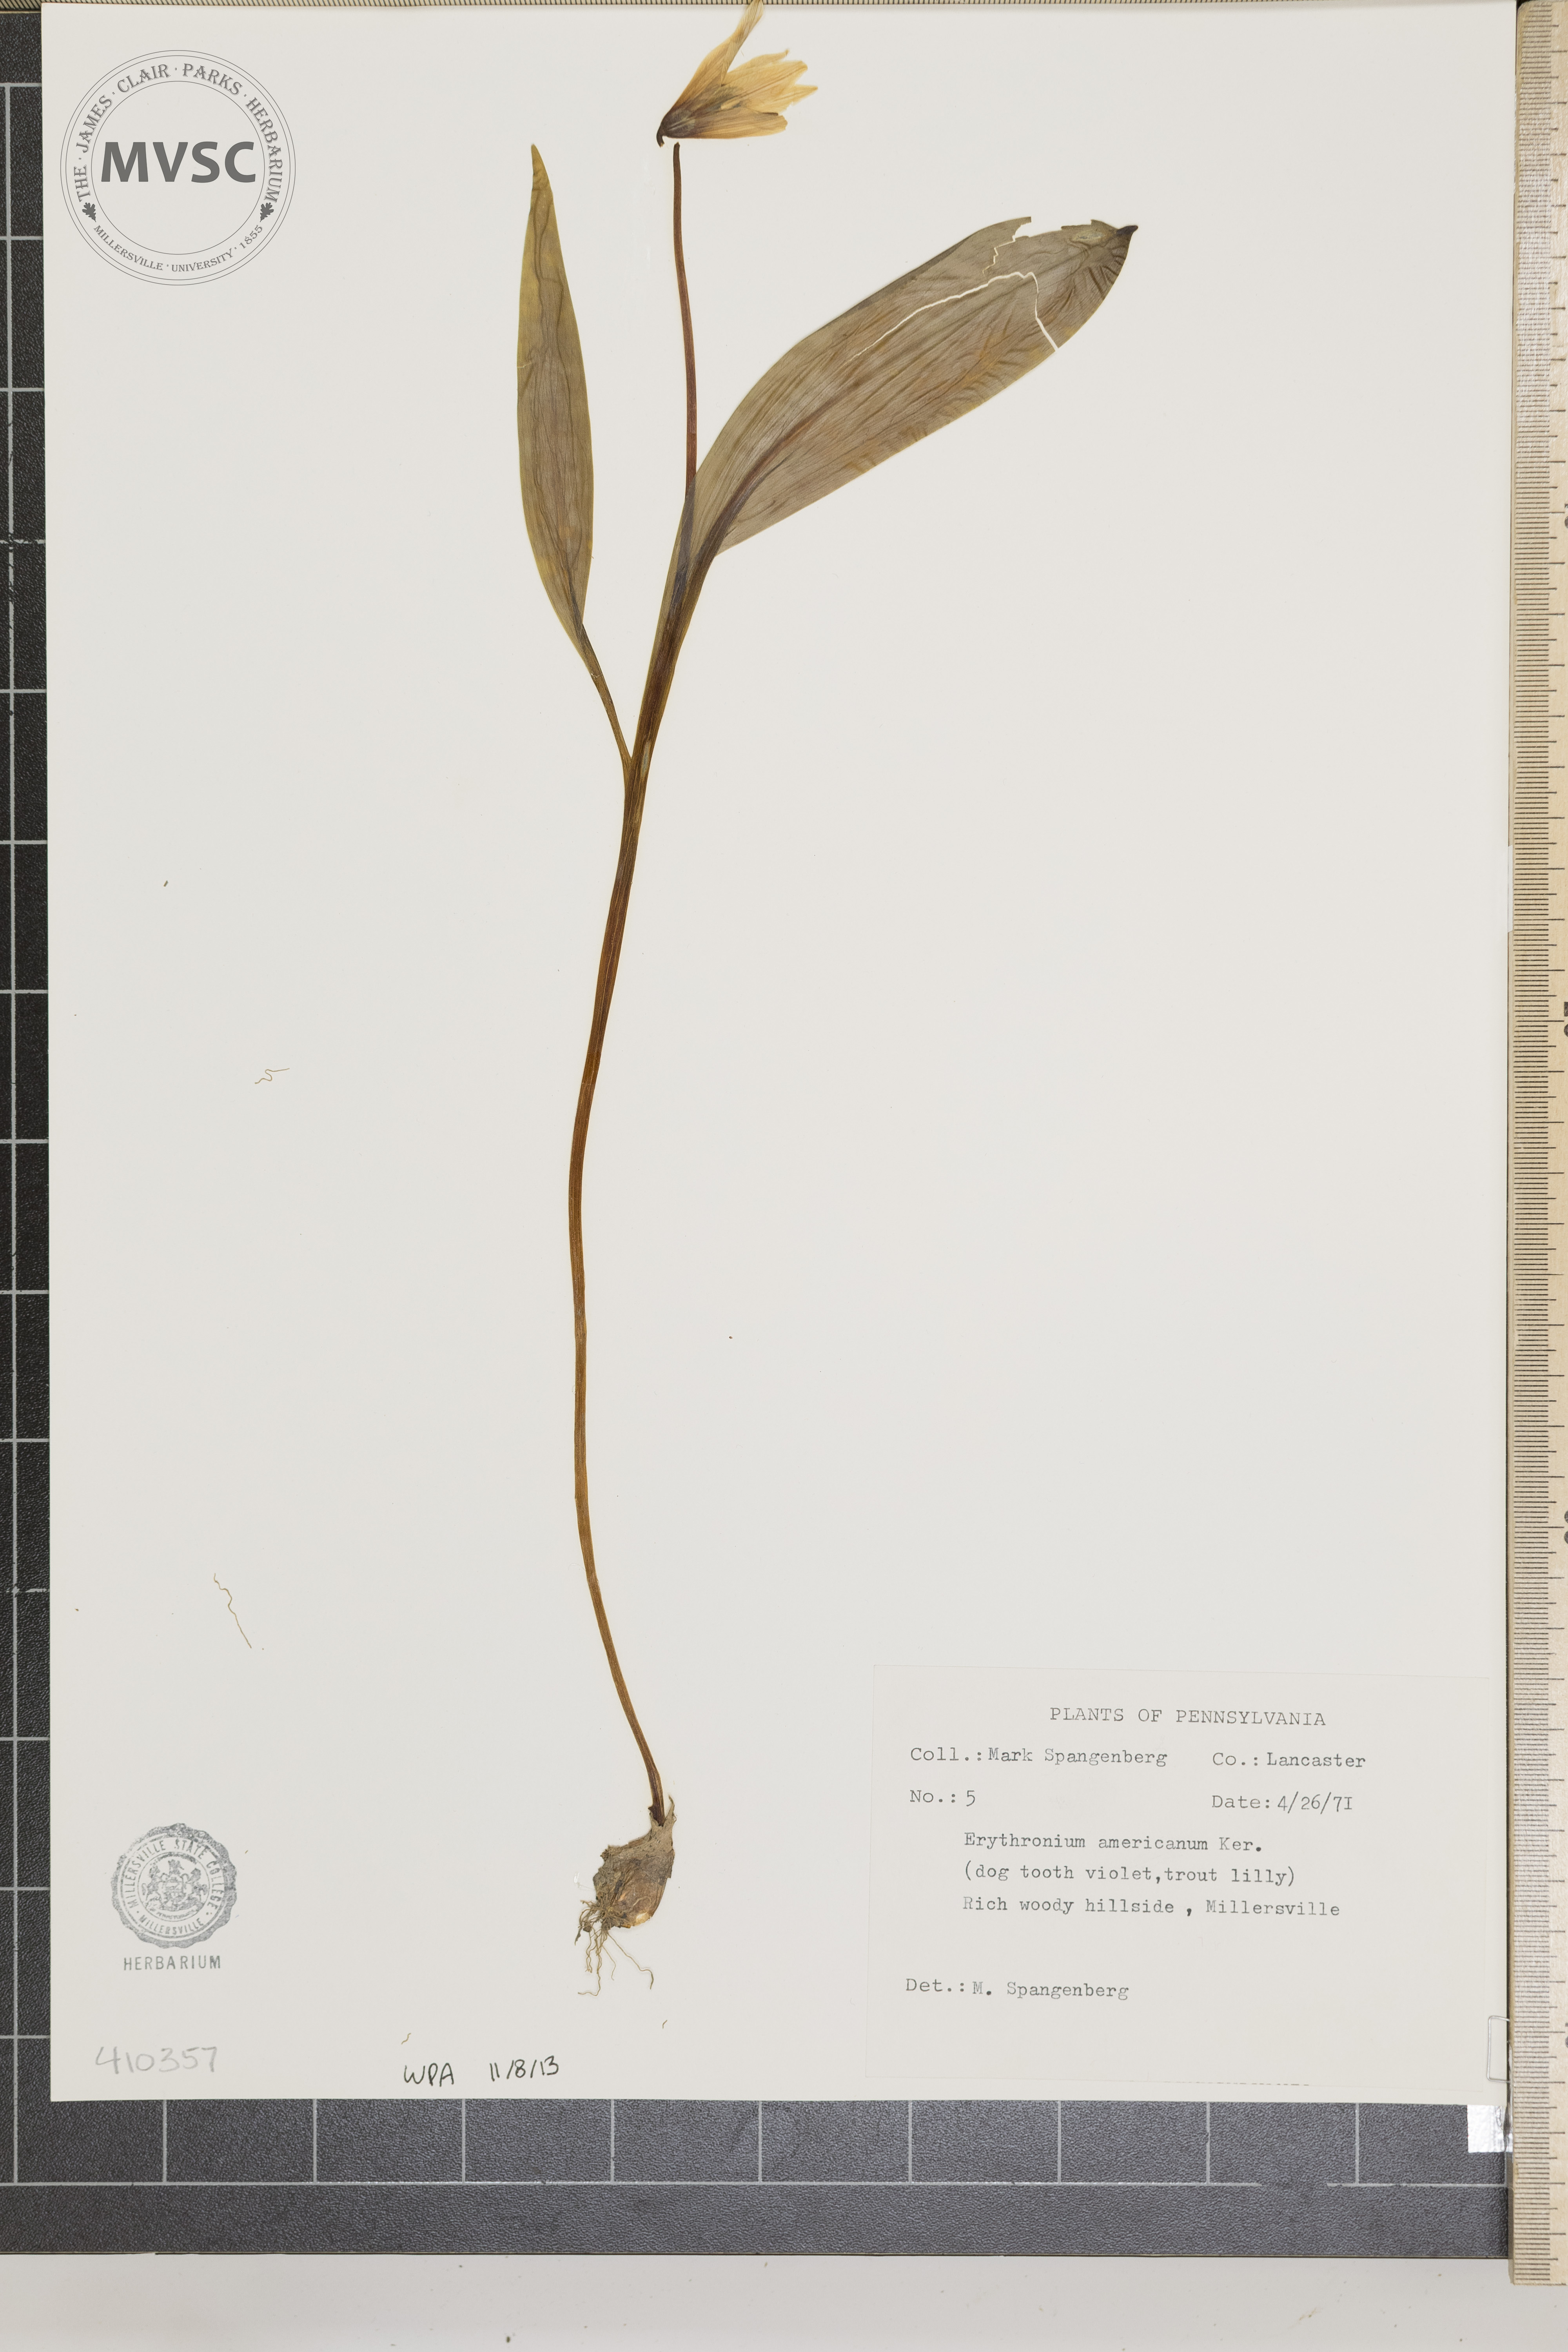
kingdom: Plantae
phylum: Tracheophyta
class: Liliopsida
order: Liliales
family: Liliaceae
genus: Erythronium
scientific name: Erythronium americanum
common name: Yellow adder's-tongue
